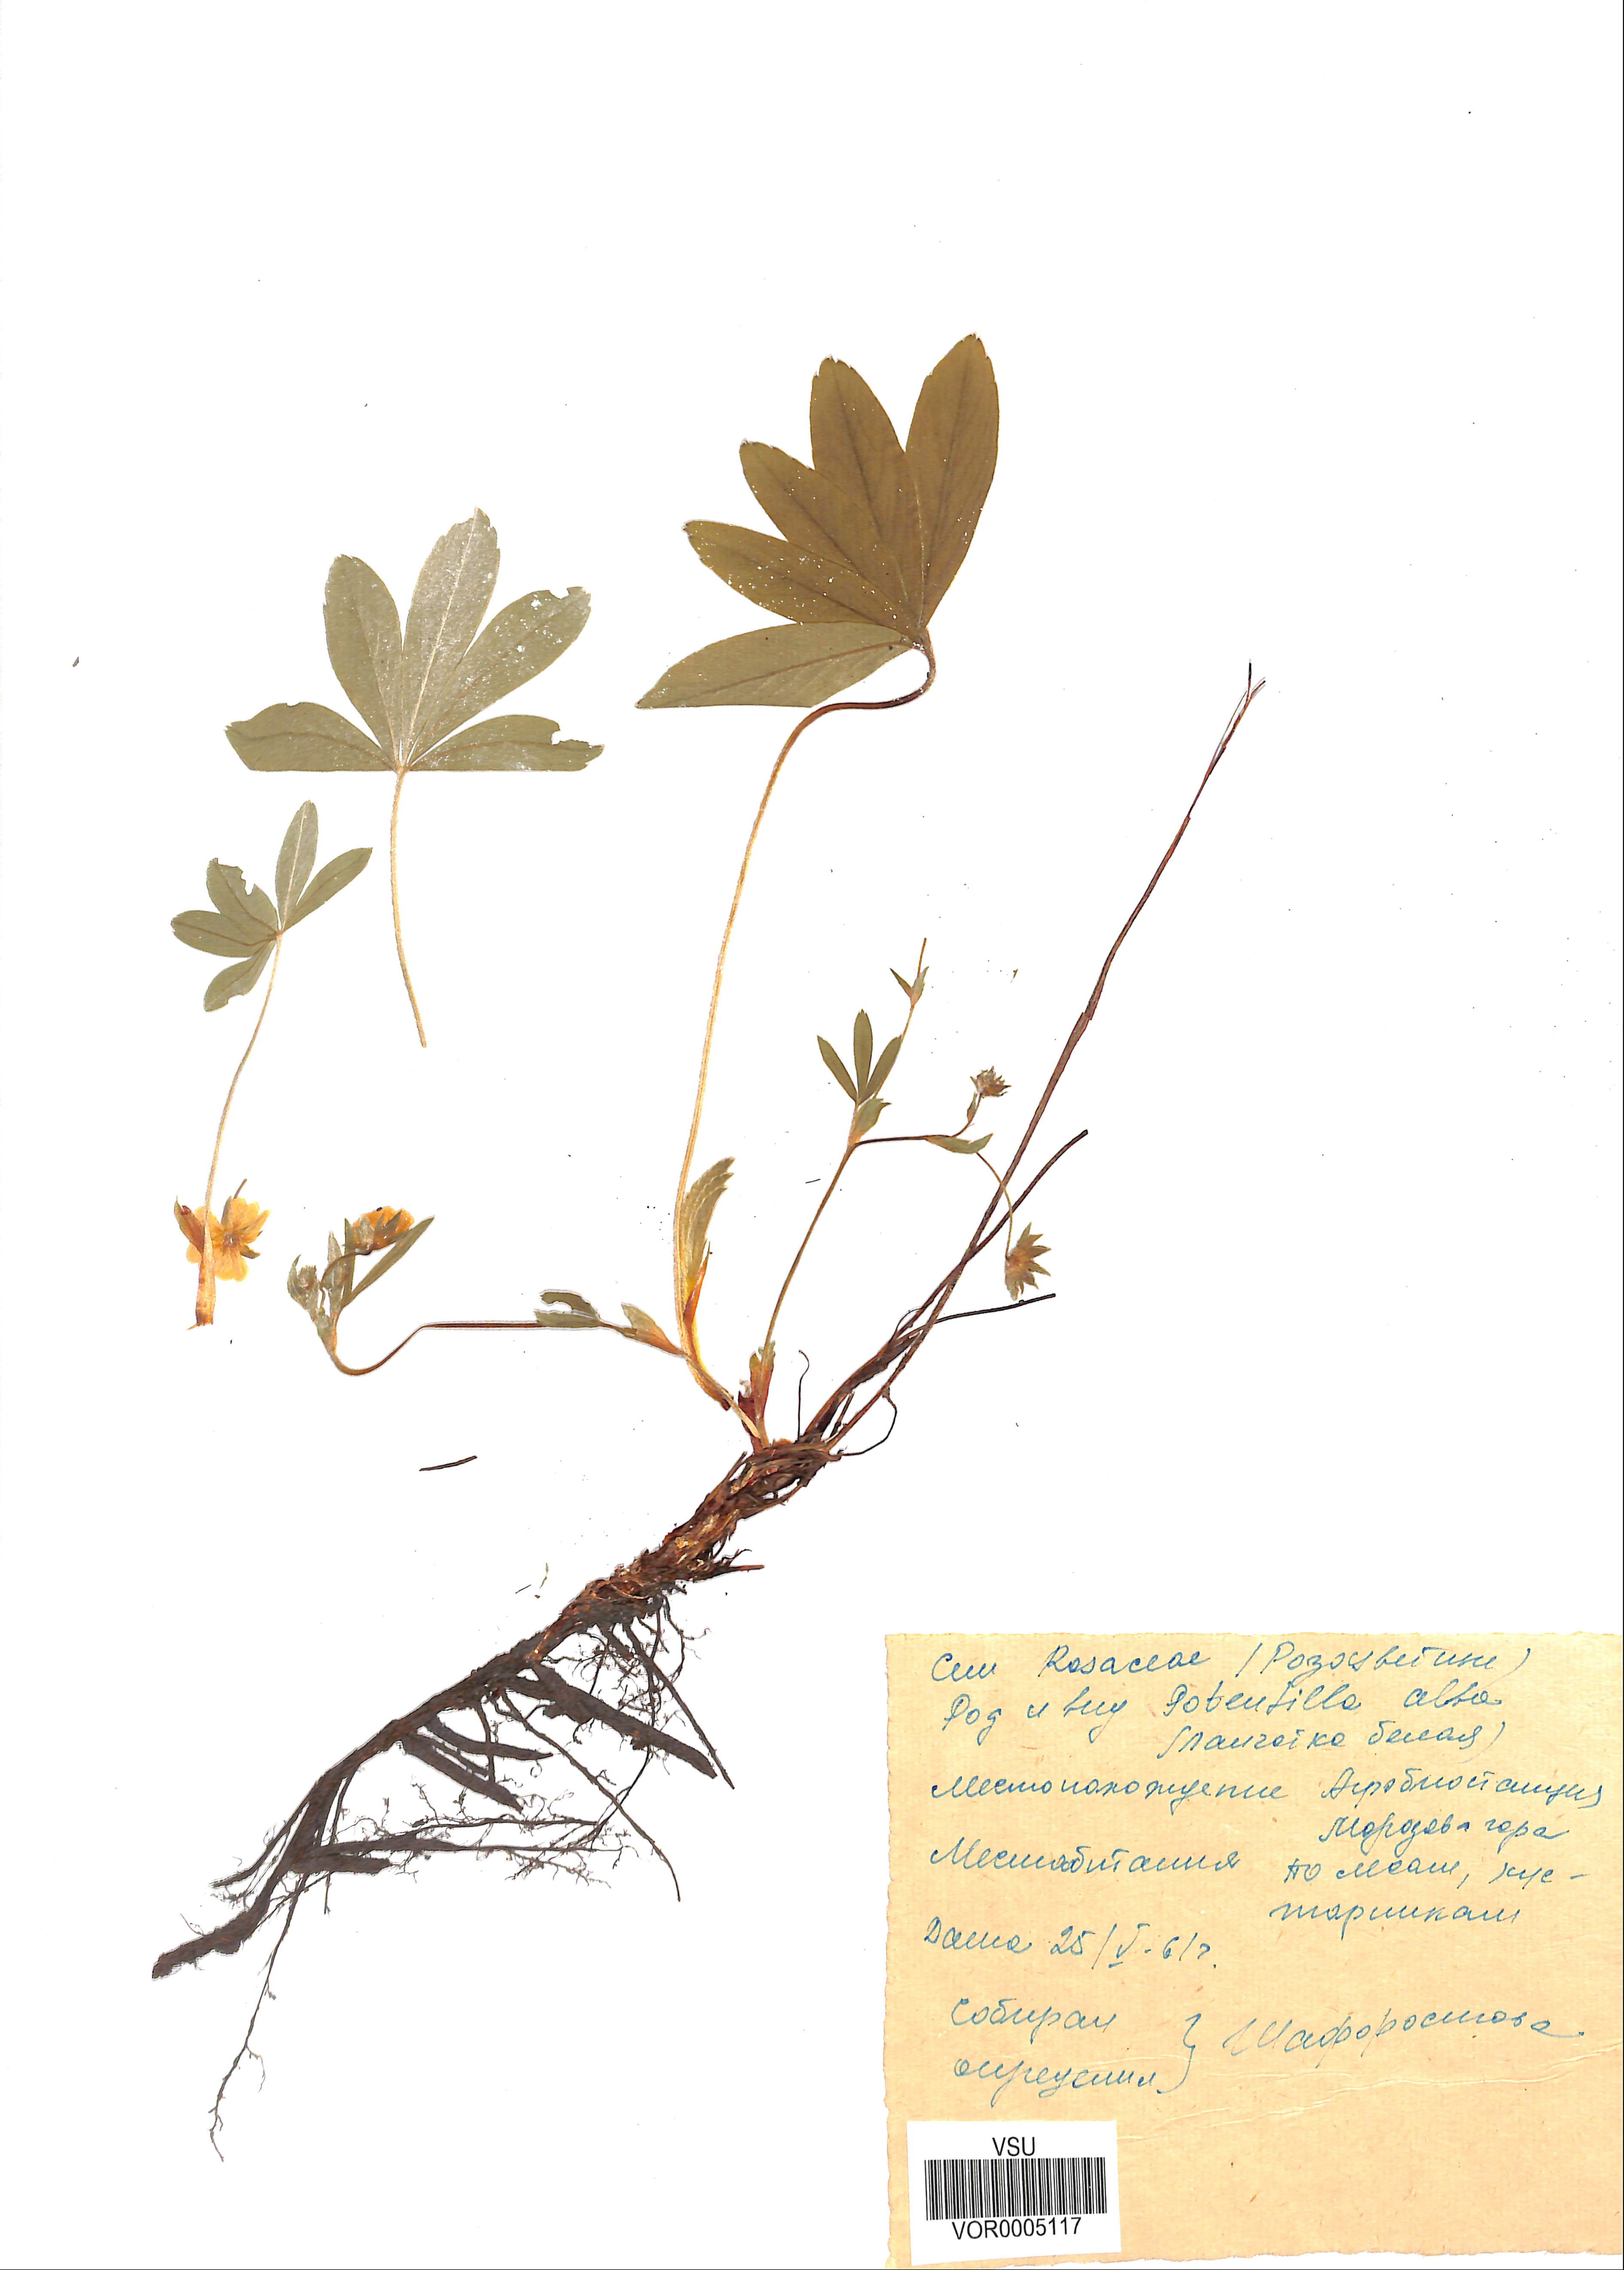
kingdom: Plantae
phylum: Tracheophyta
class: Magnoliopsida
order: Rosales
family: Rosaceae
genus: Potentilla
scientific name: Potentilla alba
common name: White cinquefoil
